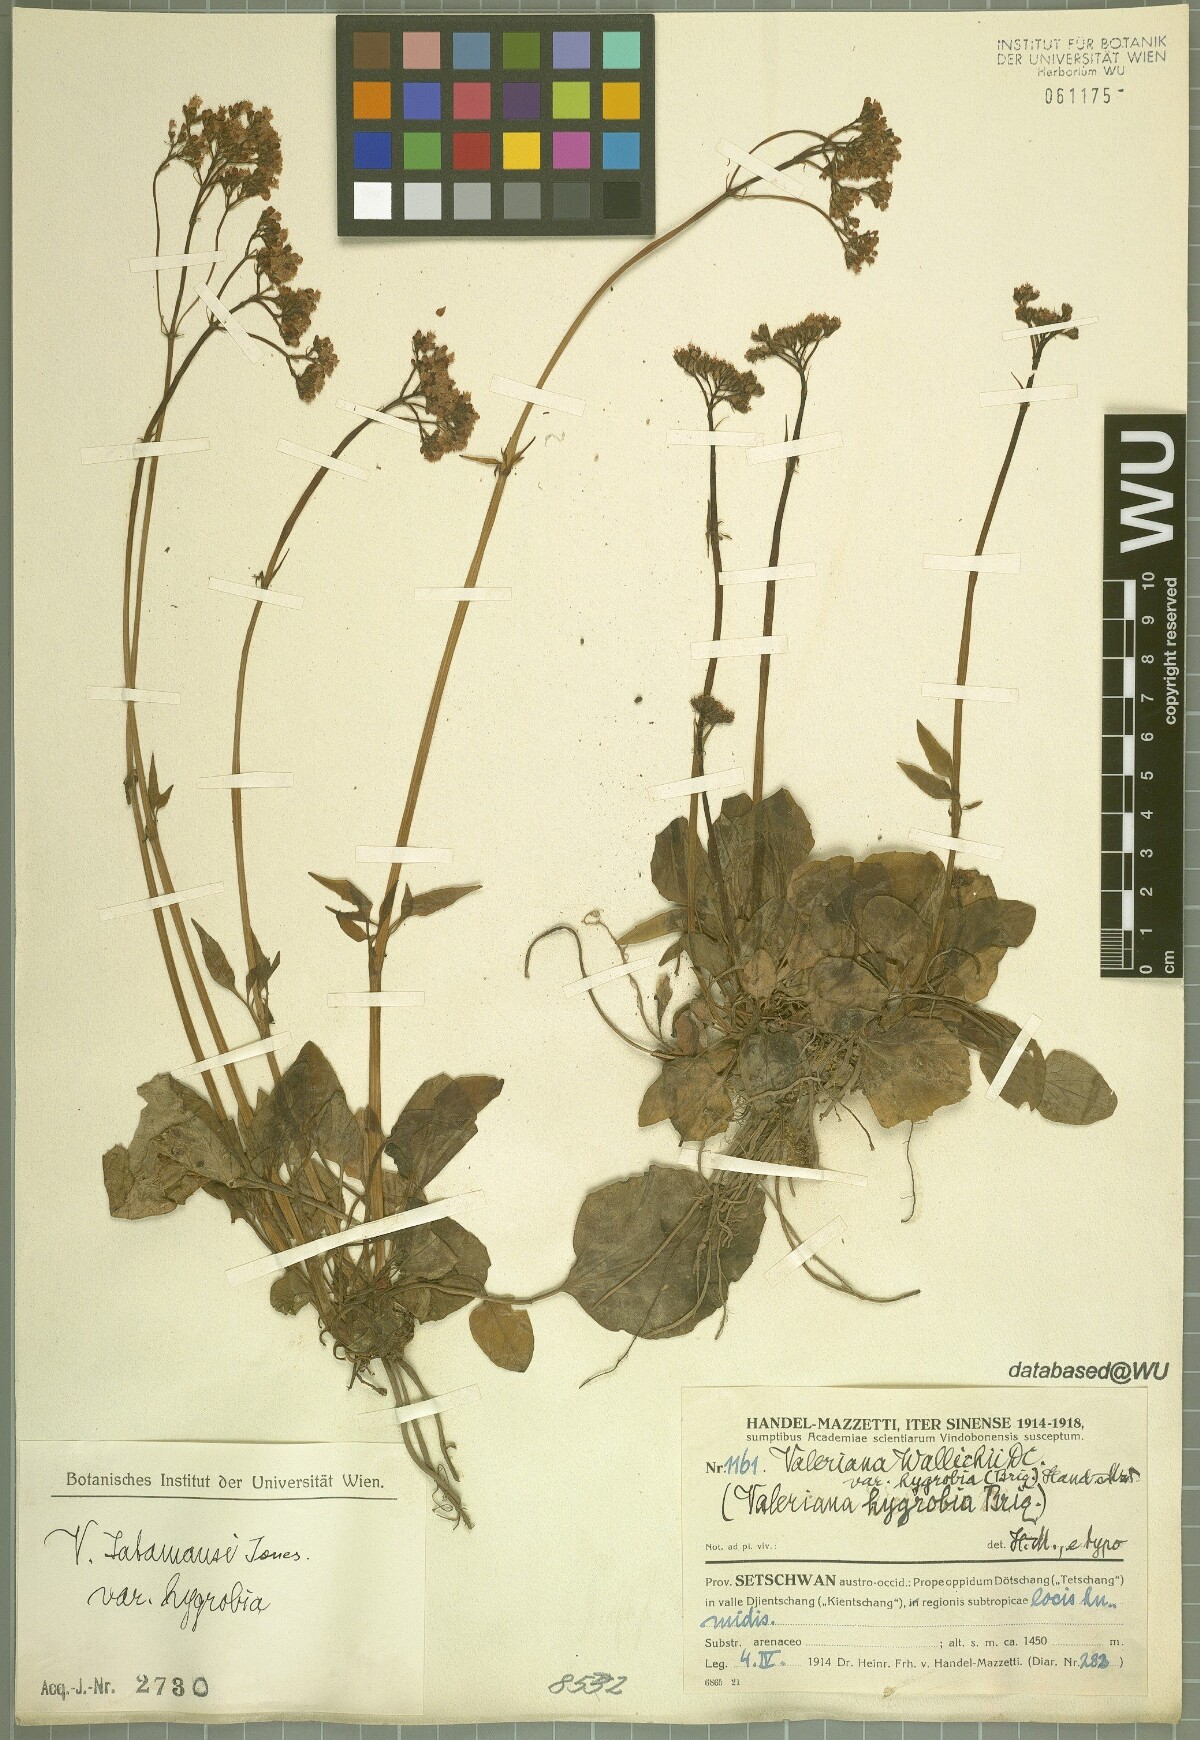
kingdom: Plantae
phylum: Tracheophyta
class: Magnoliopsida
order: Dipsacales
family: Caprifoliaceae
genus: Valeriana
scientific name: Valeriana jatamansi
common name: Indian valerian
